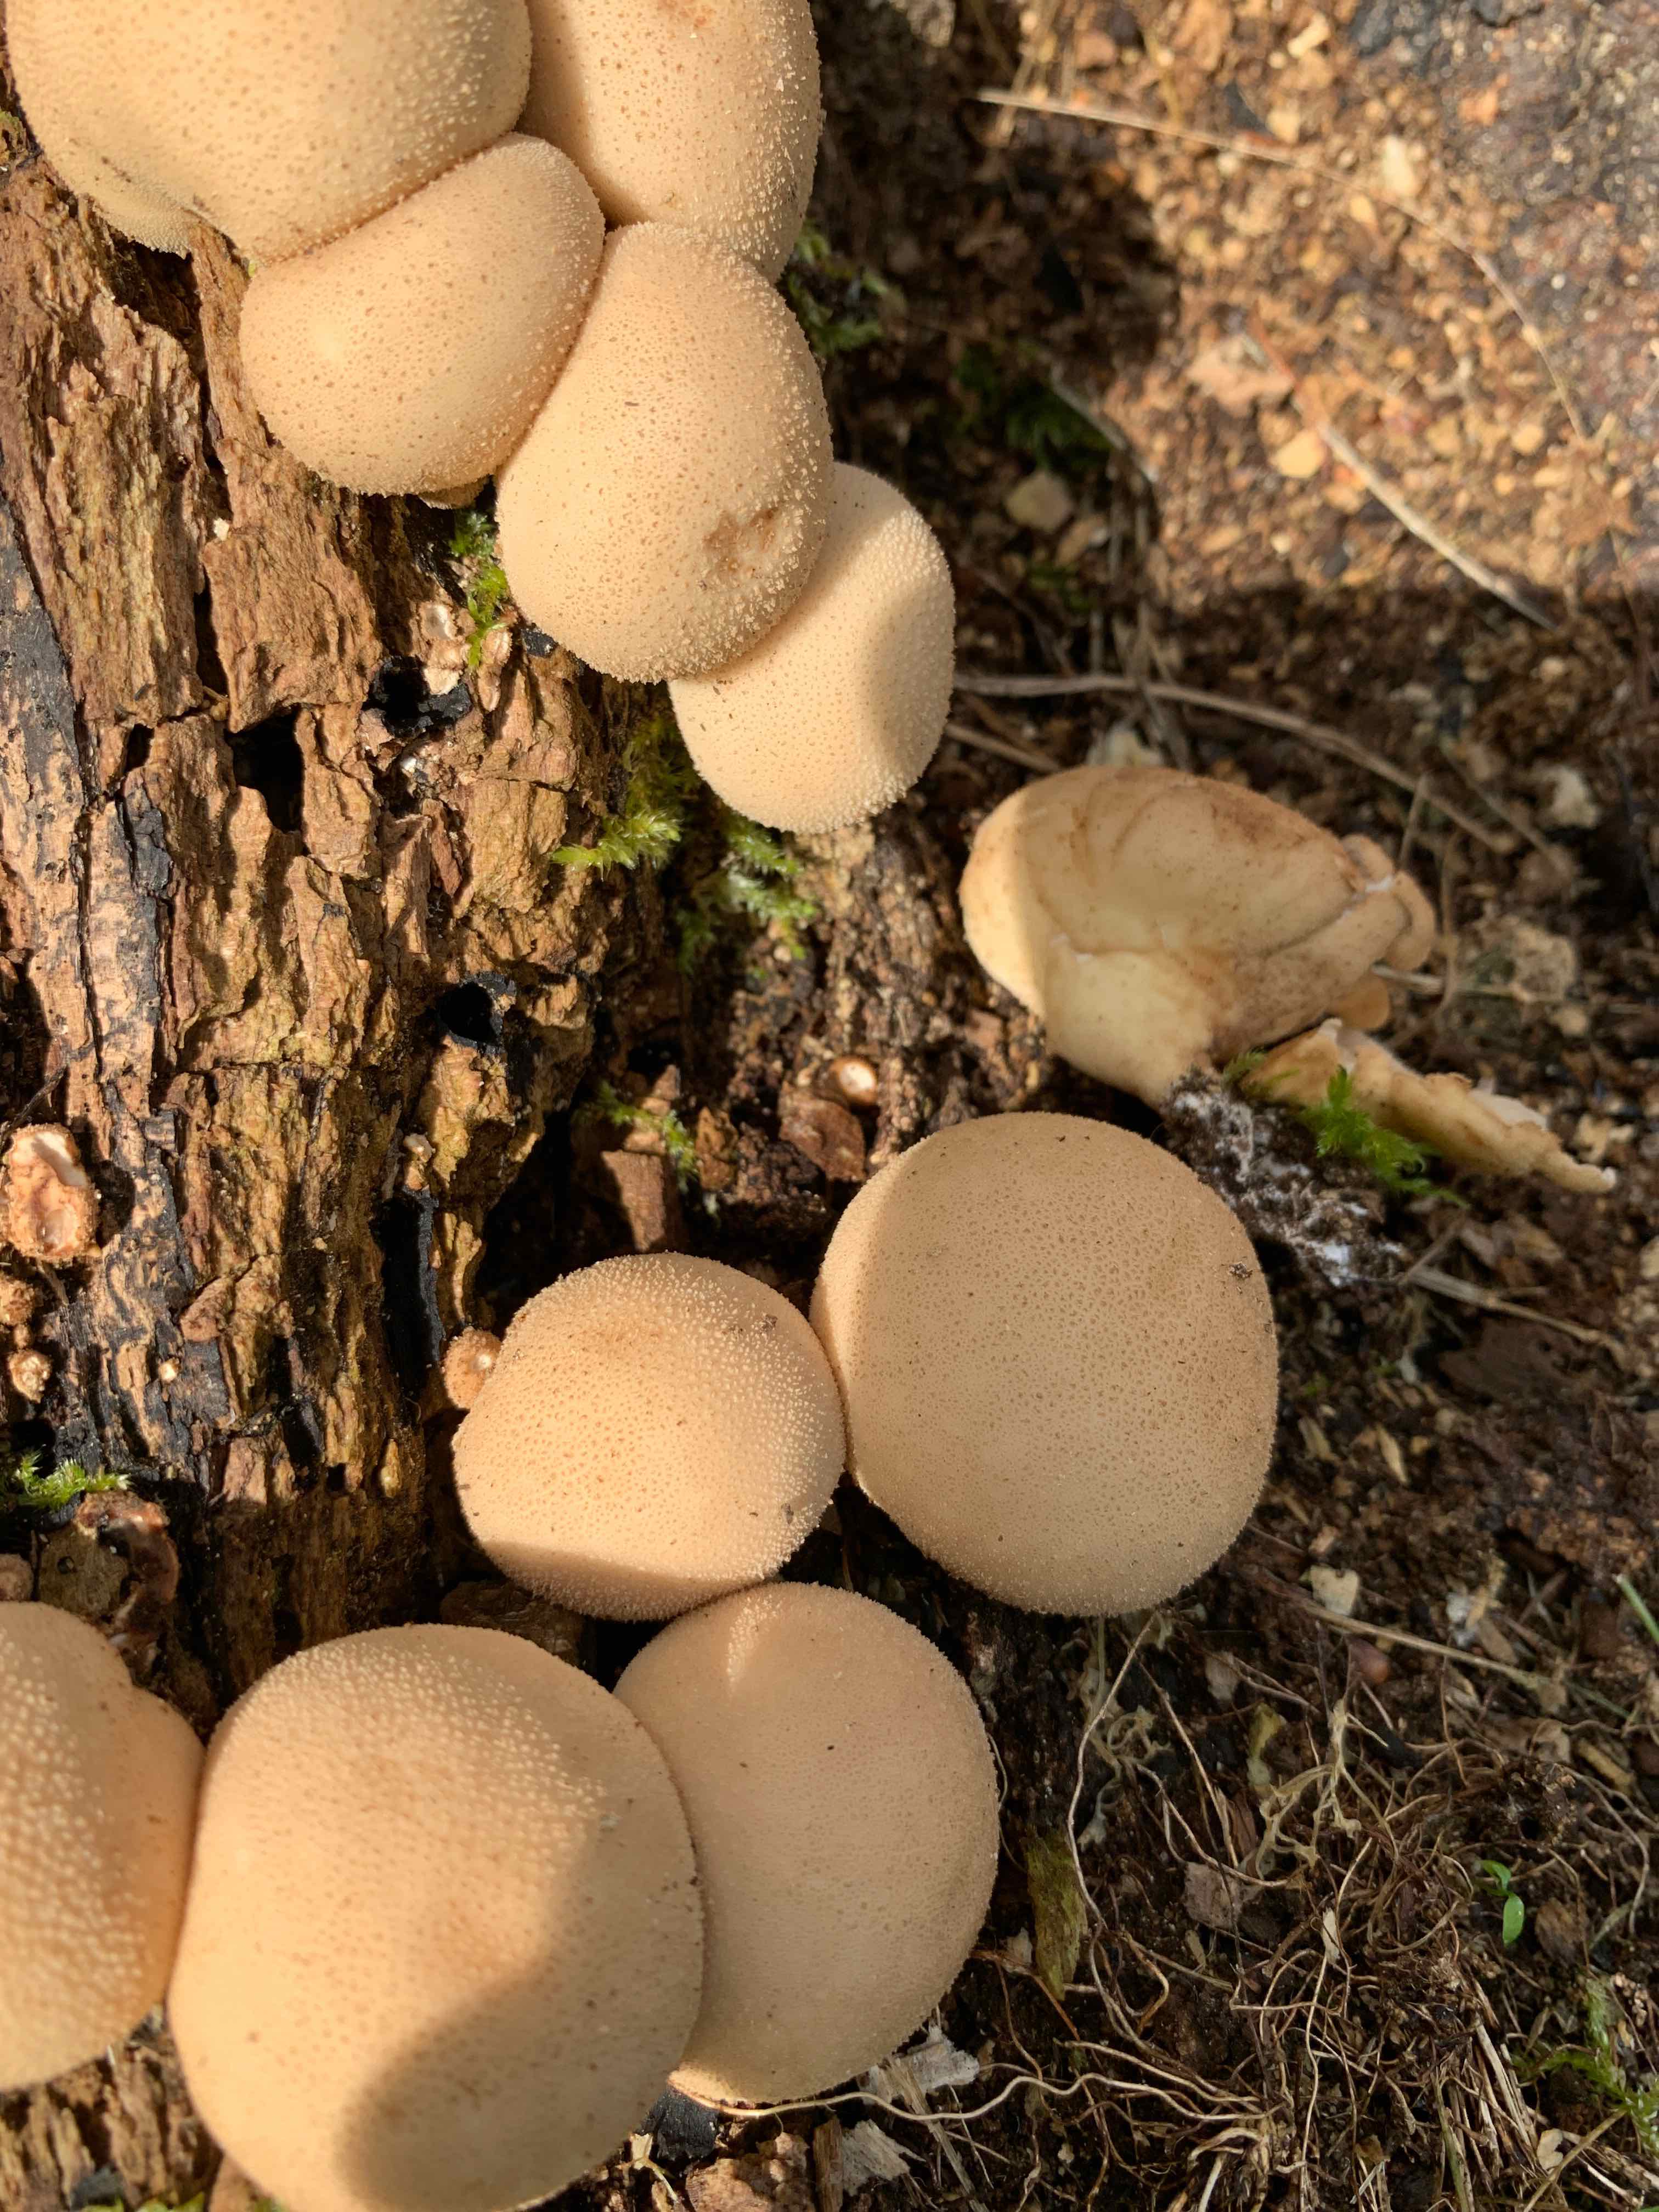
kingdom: Protozoa
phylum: Mycetozoa
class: Myxomycetes
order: Cribrariales
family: Tubiferaceae
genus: Lycogala
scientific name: Lycogala epidendrum
